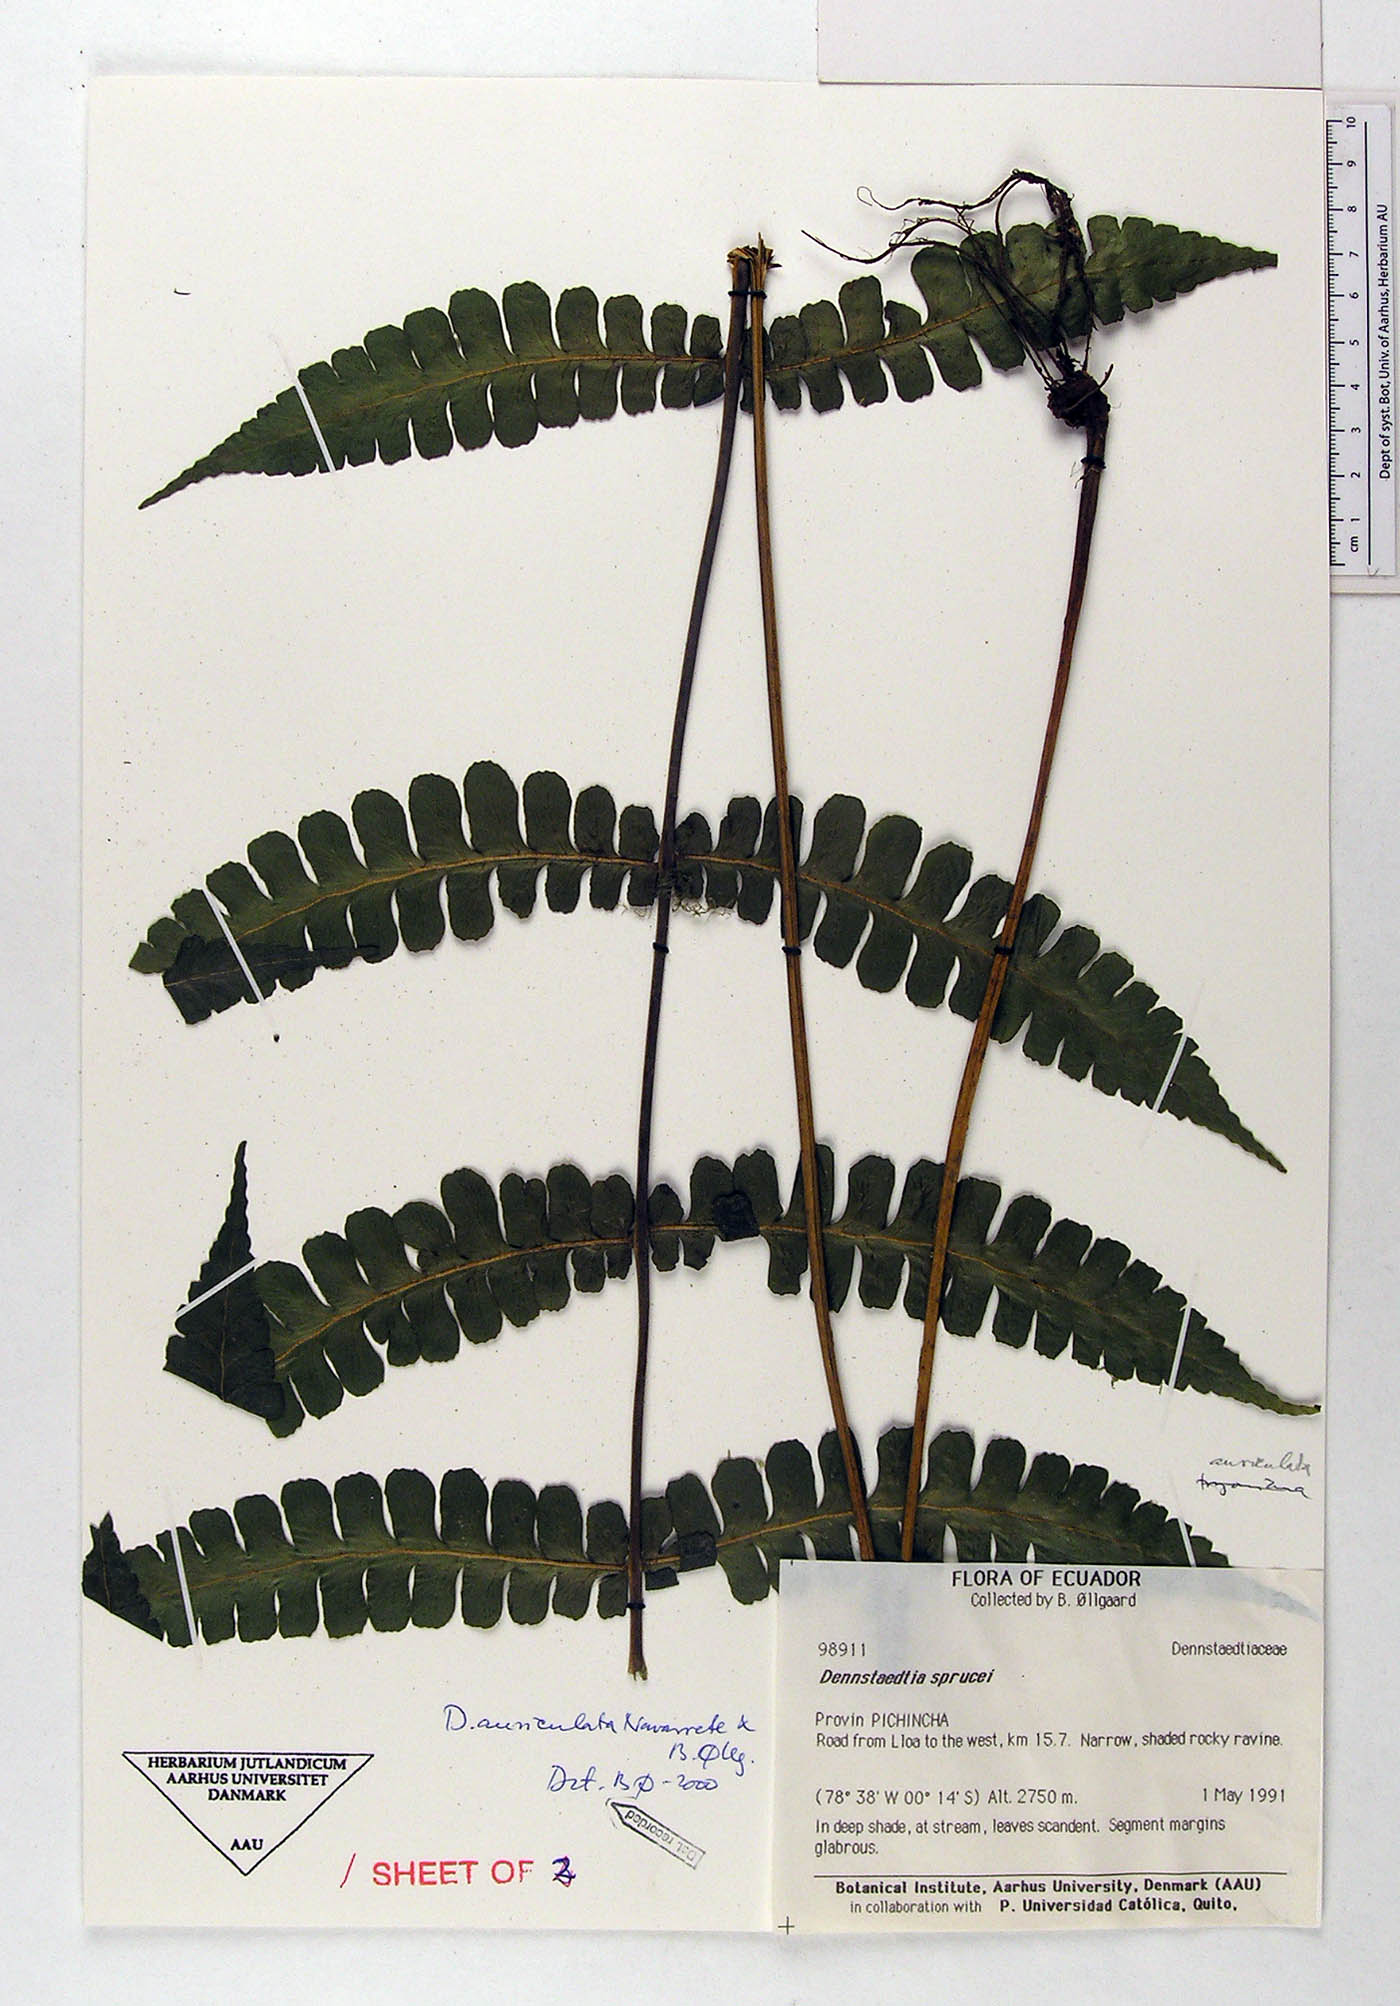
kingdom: Plantae
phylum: Tracheophyta
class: Polypodiopsida
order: Polypodiales
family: Dennstaedtiaceae
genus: Dennstaedtia
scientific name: Dennstaedtia auriculata
